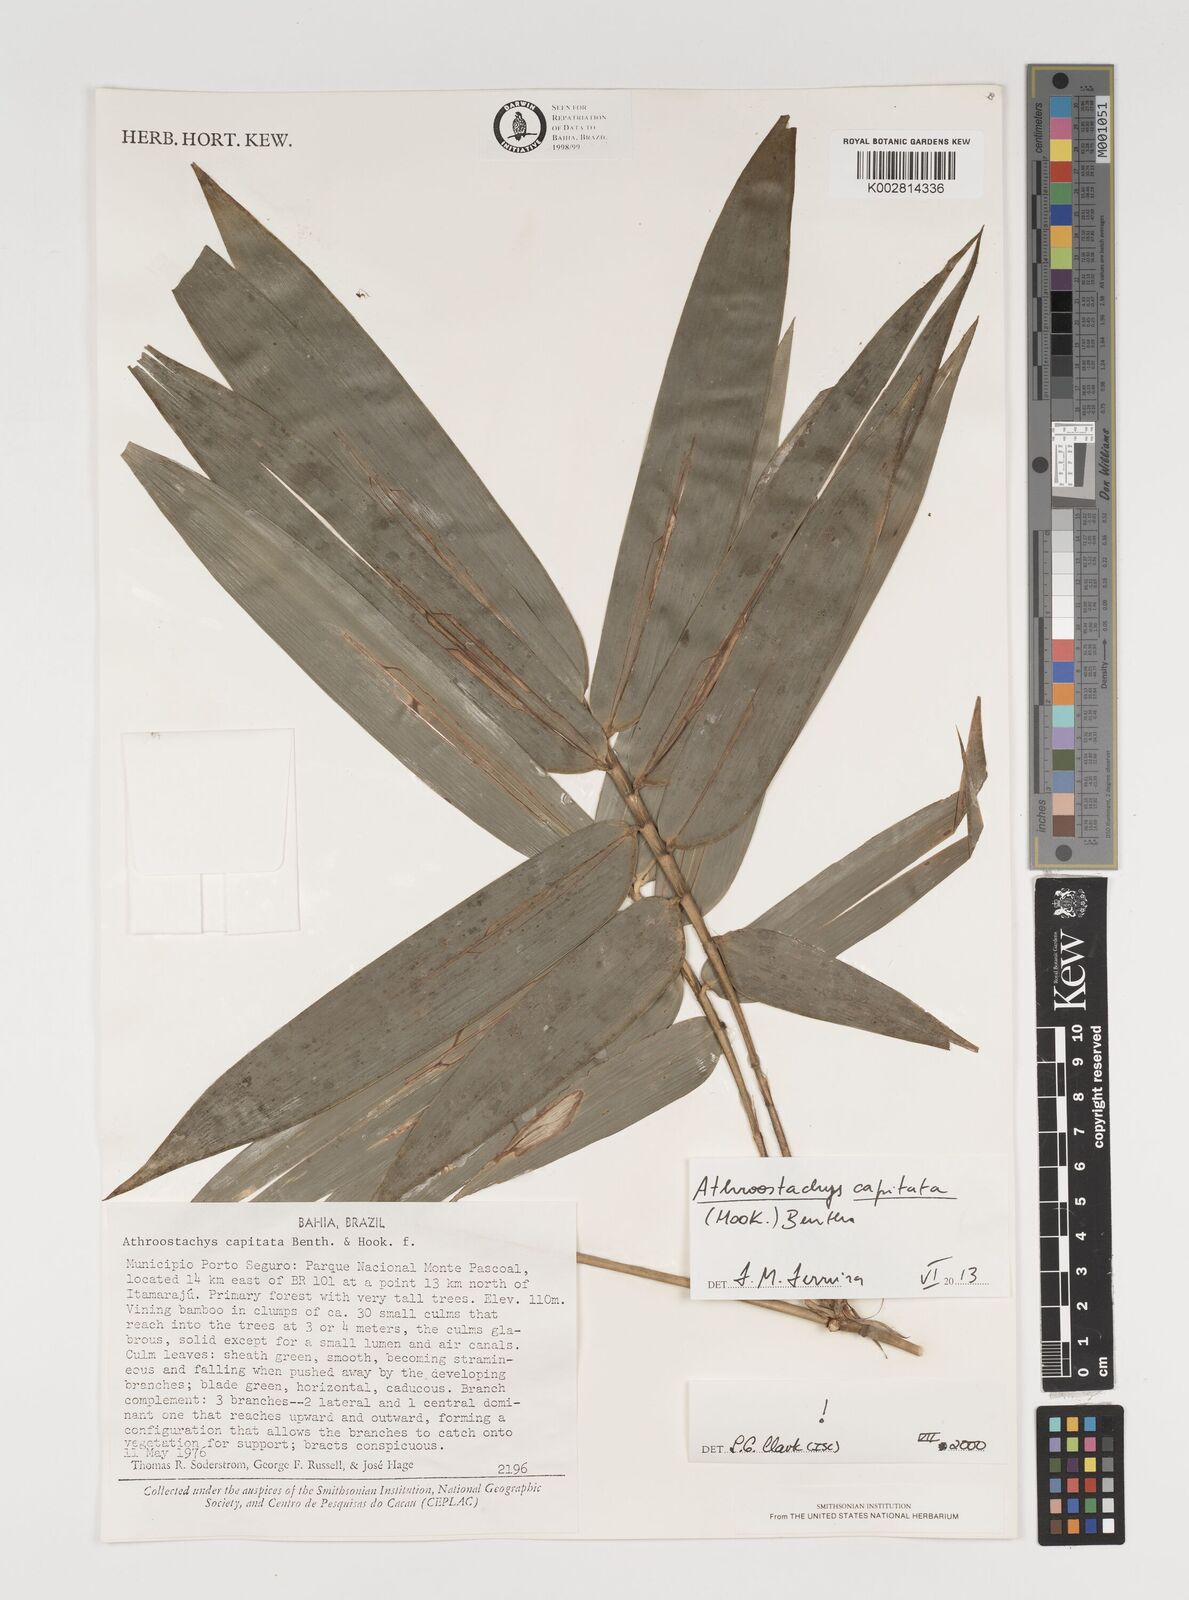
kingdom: Plantae
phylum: Tracheophyta
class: Liliopsida
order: Poales
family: Poaceae
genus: Athroostachys
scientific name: Athroostachys capitata
